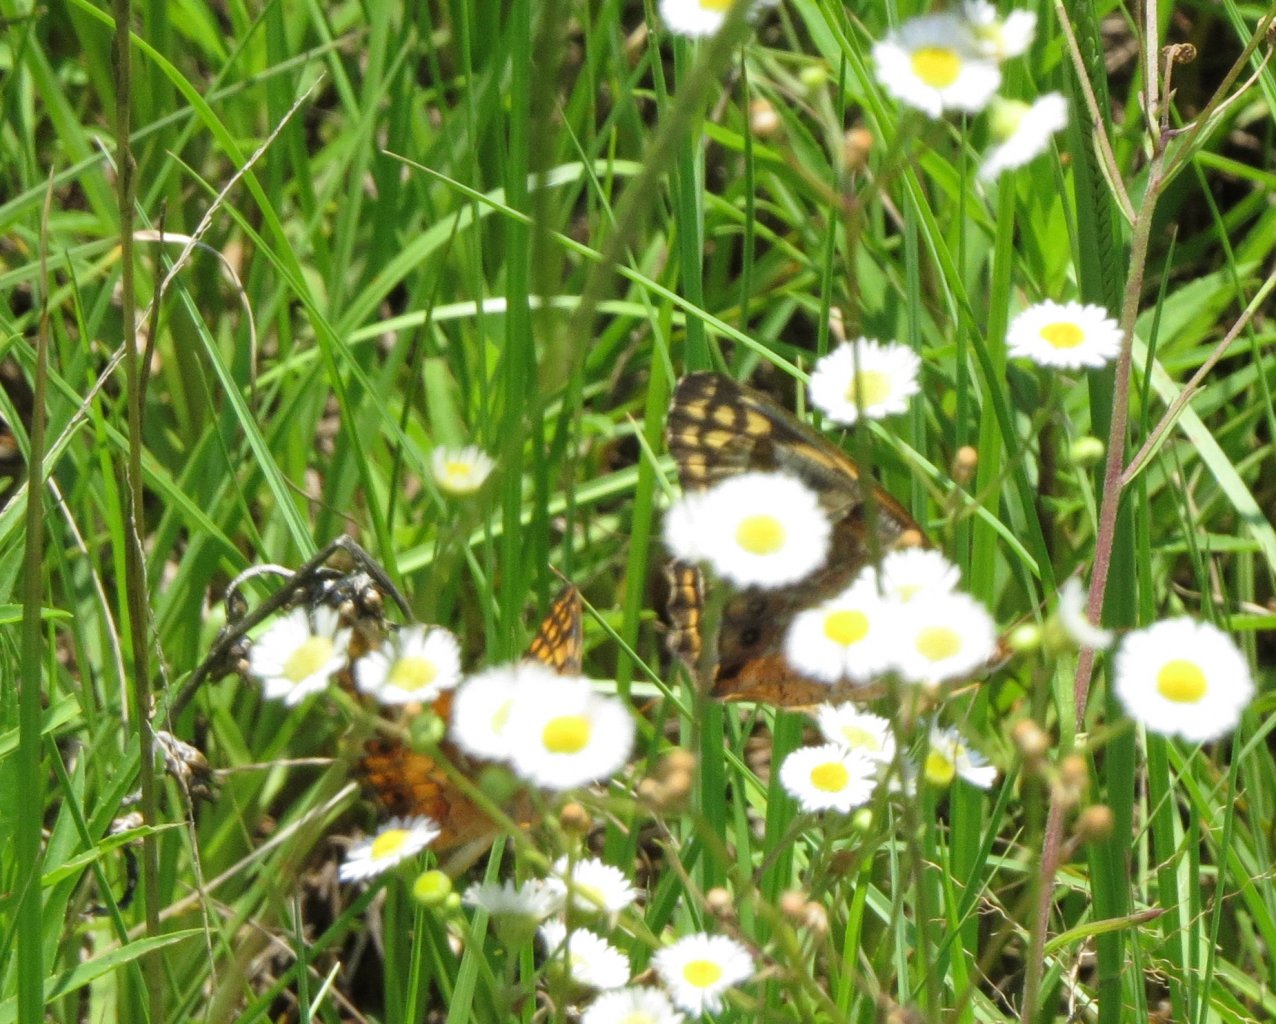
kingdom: Animalia
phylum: Arthropoda
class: Insecta
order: Lepidoptera
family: Nymphalidae
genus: Euptoieta
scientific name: Euptoieta claudia
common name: Variegated Fritillary
